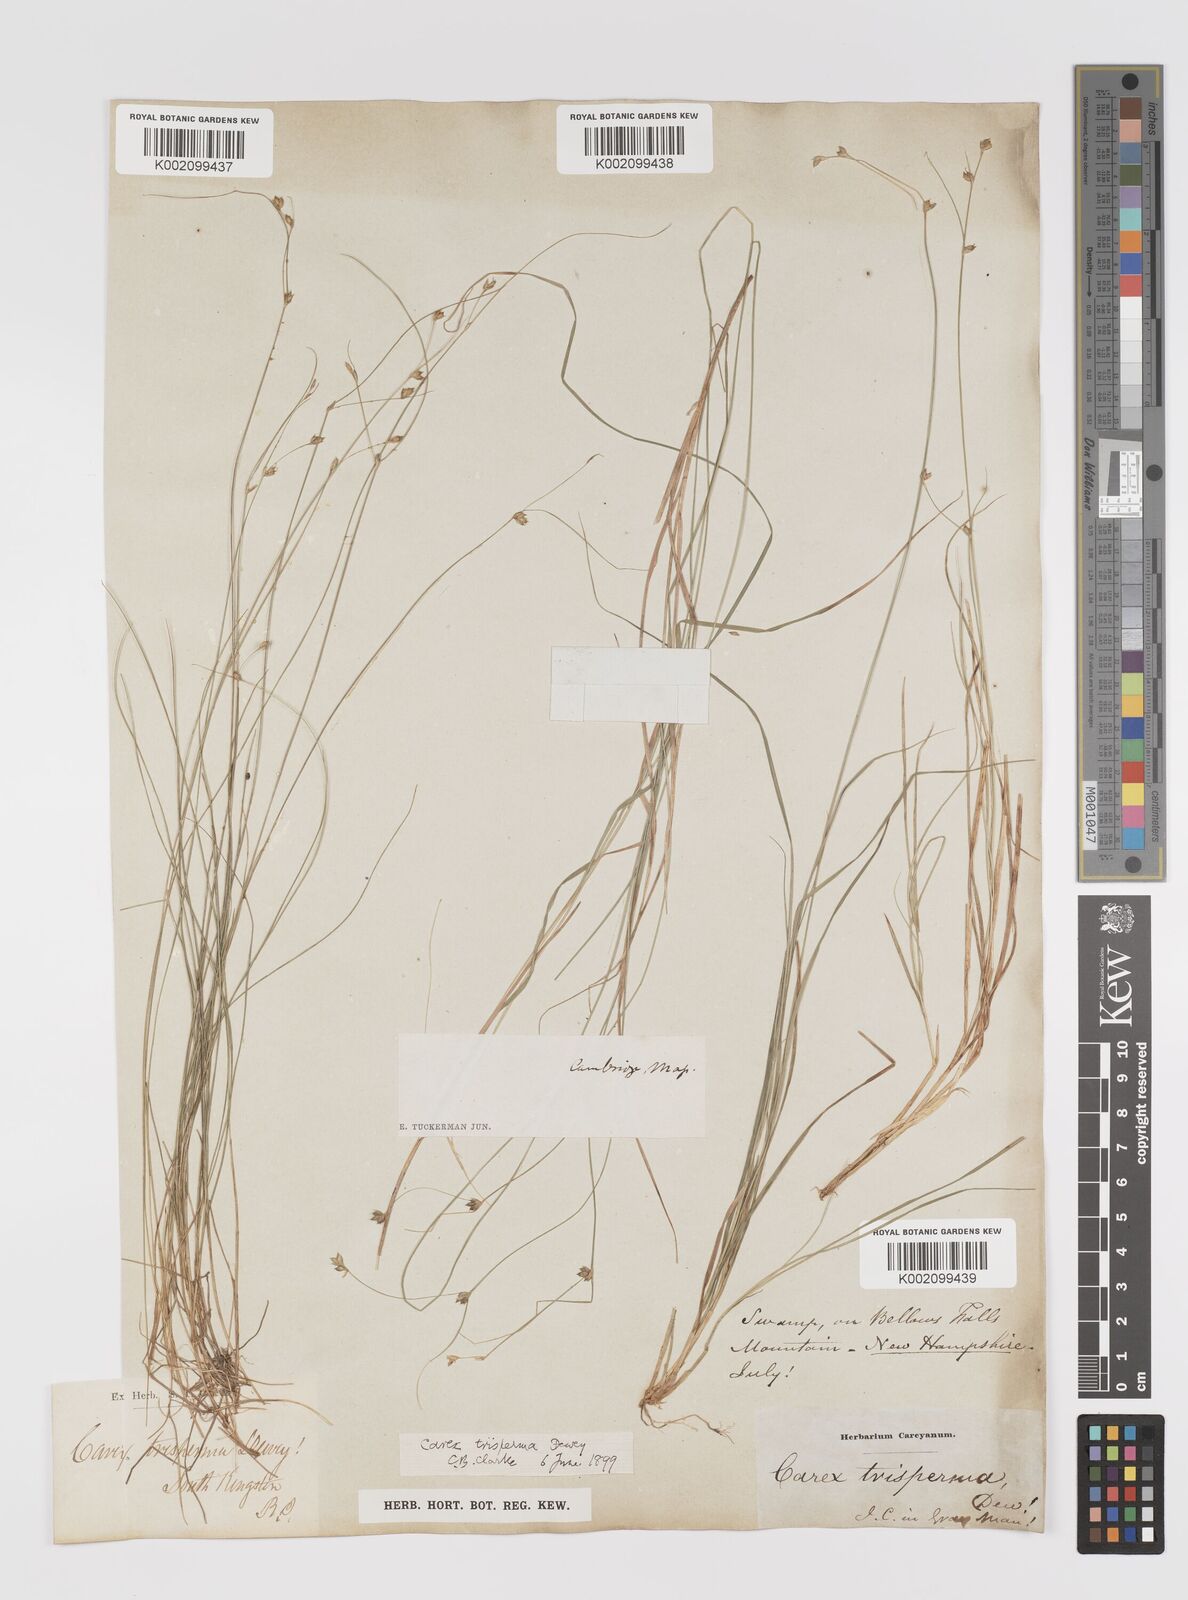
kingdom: Plantae
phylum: Tracheophyta
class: Liliopsida
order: Poales
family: Cyperaceae
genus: Carex
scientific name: Carex trisperma
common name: Three-seeded sedge
